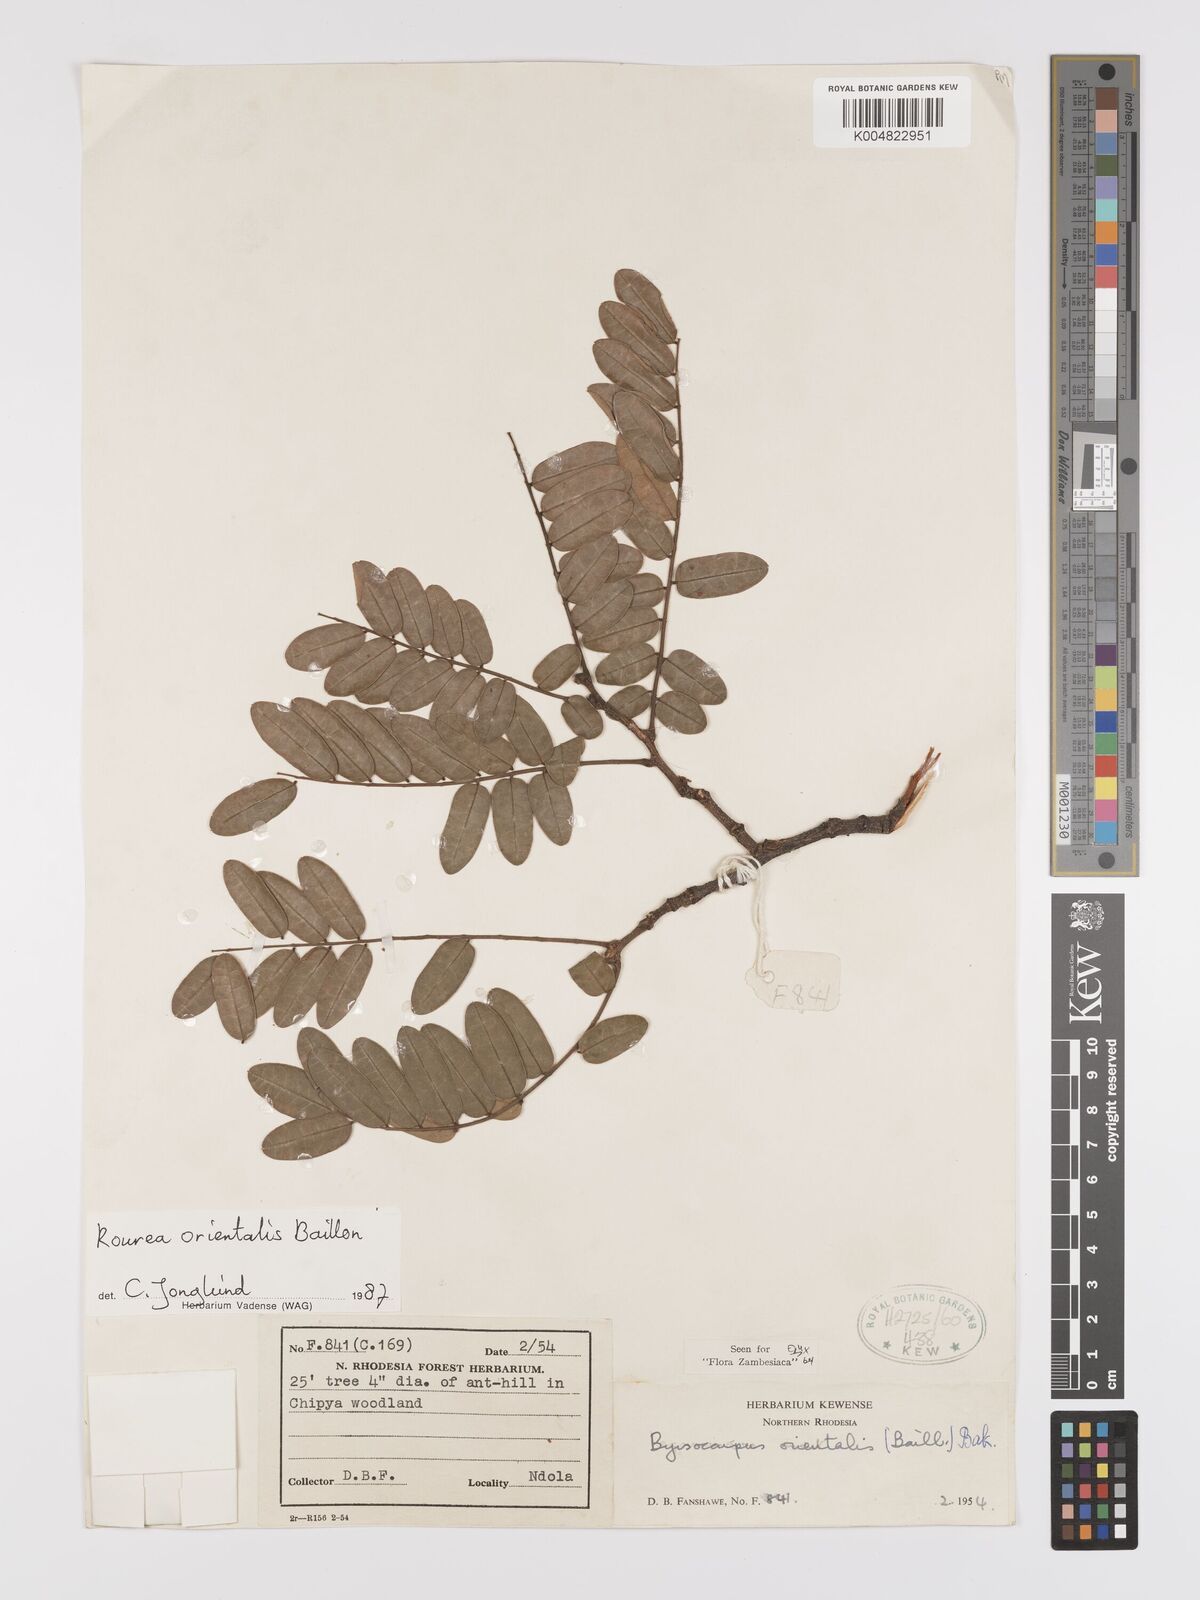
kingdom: Plantae
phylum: Tracheophyta
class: Magnoliopsida
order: Oxalidales
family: Connaraceae
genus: Rourea
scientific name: Rourea orientalis
